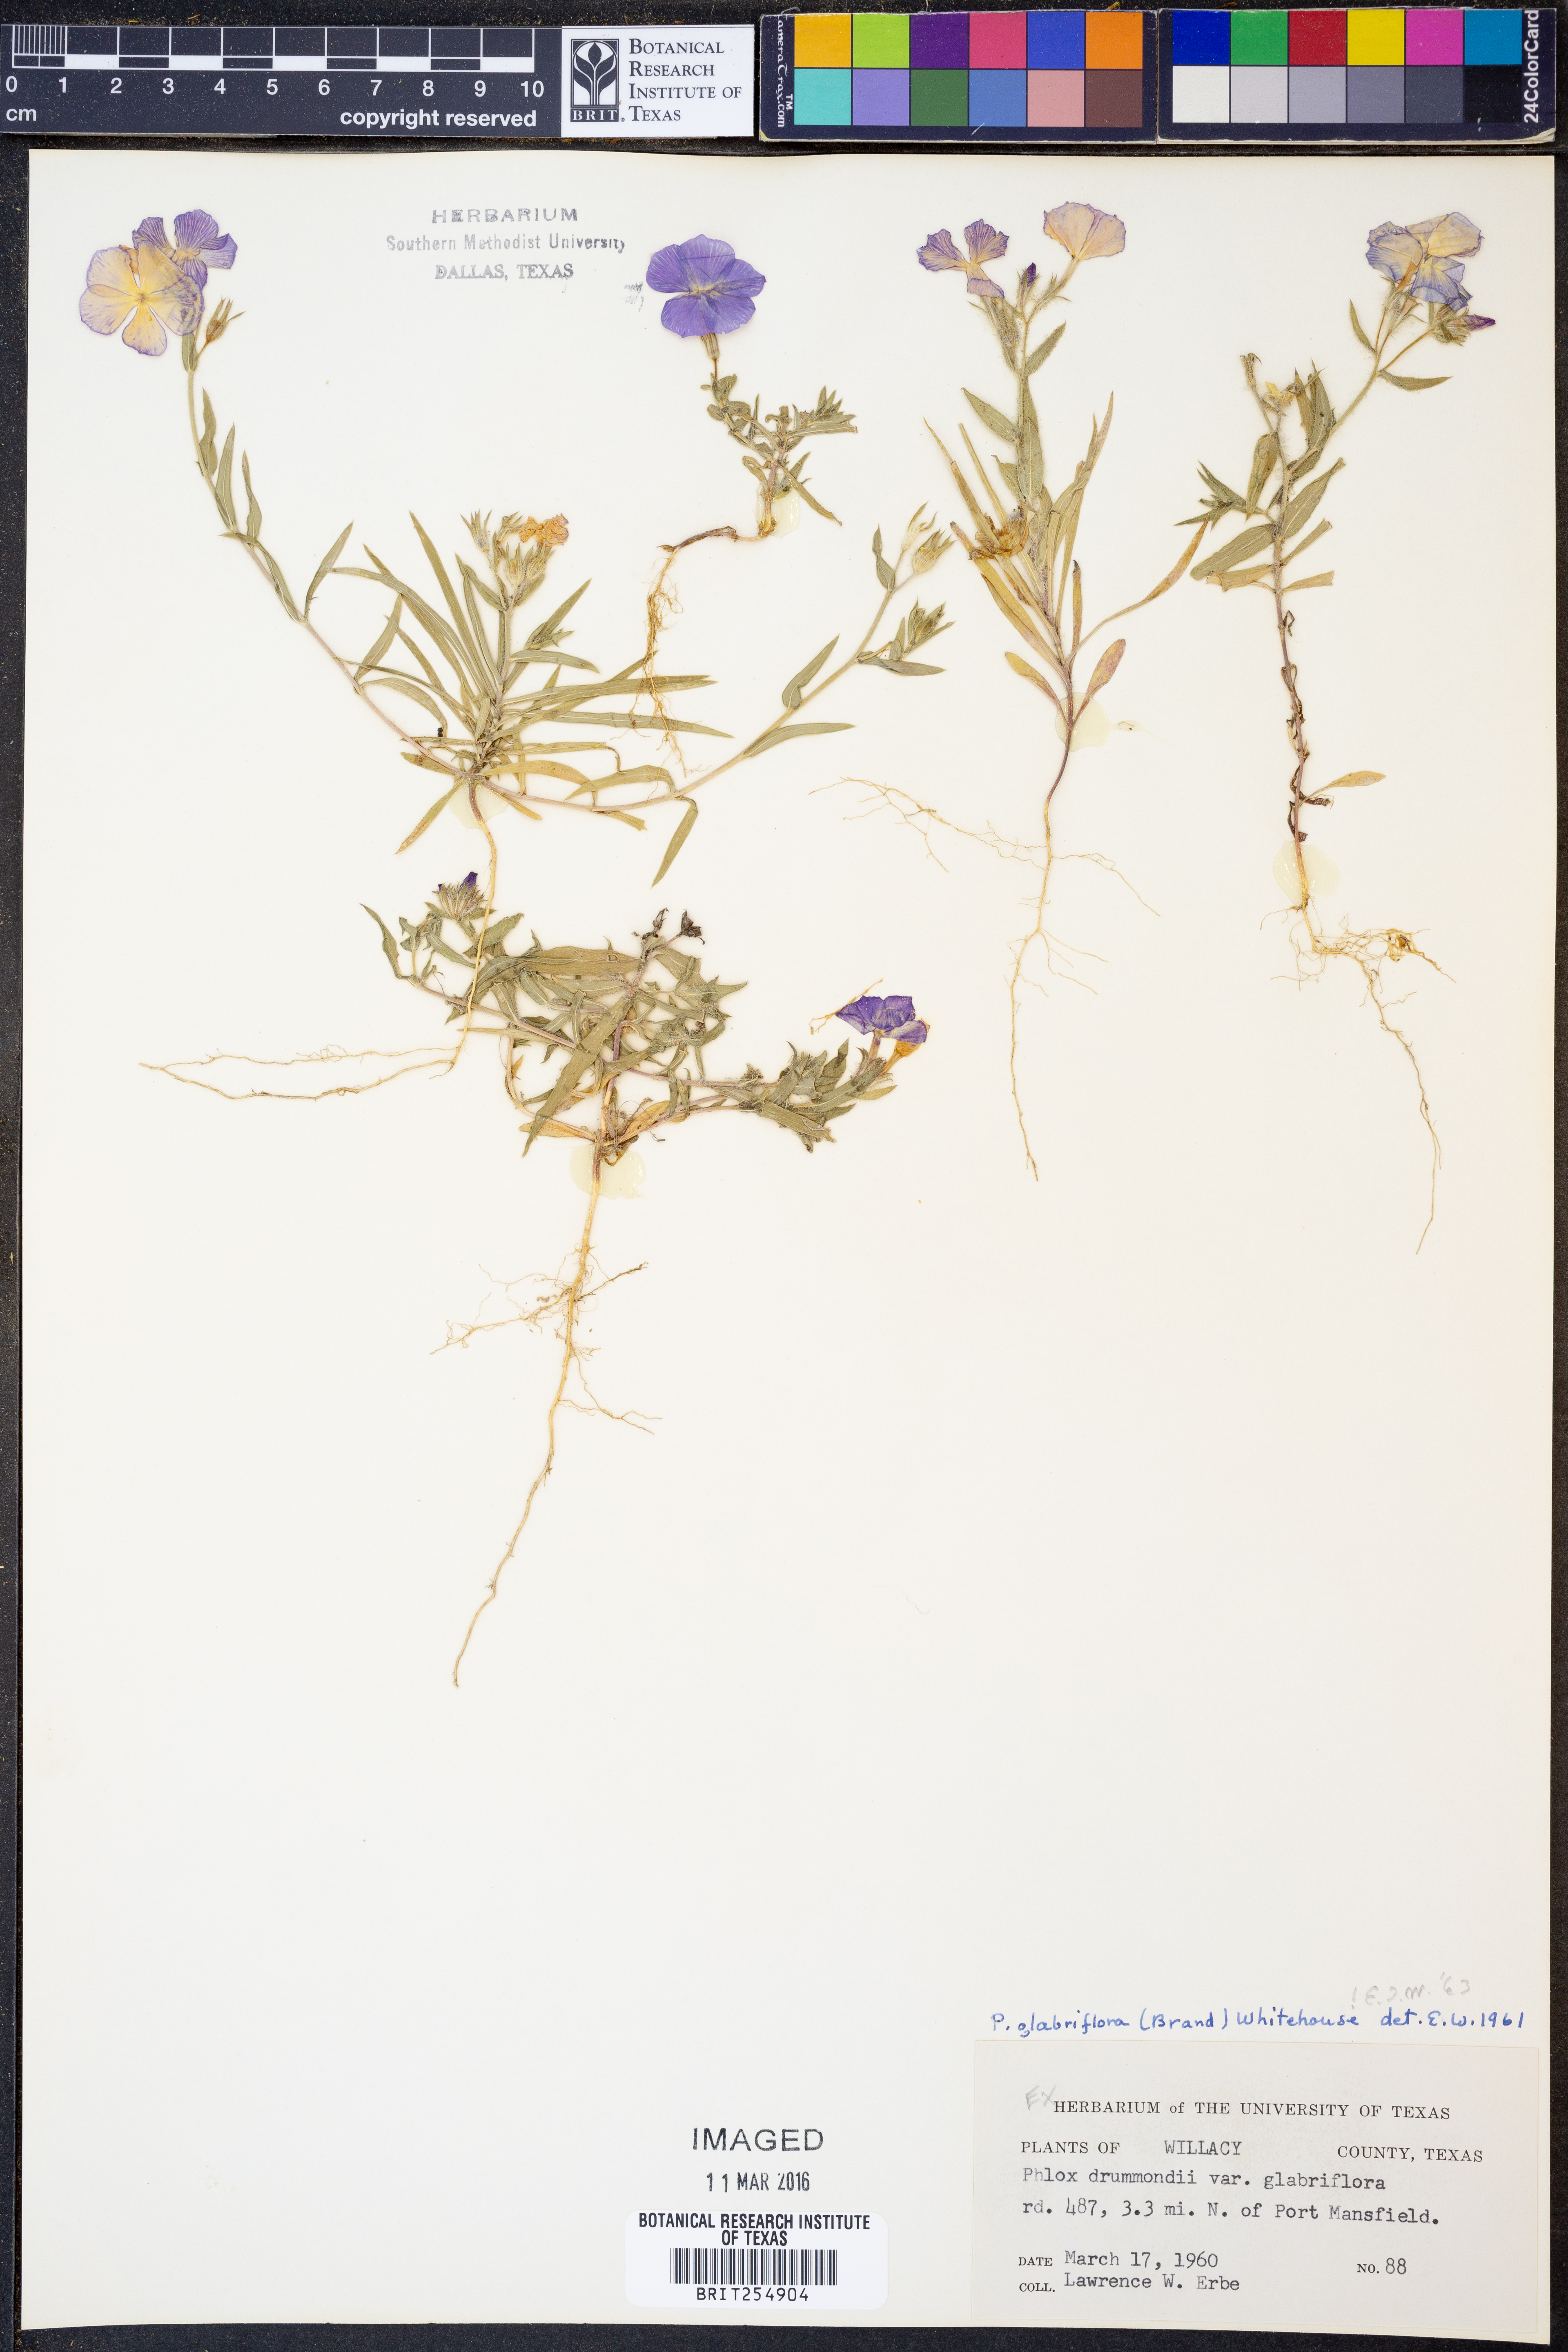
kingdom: Plantae
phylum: Tracheophyta
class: Magnoliopsida
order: Ericales
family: Polemoniaceae
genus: Phlox
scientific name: Phlox glabriflora
